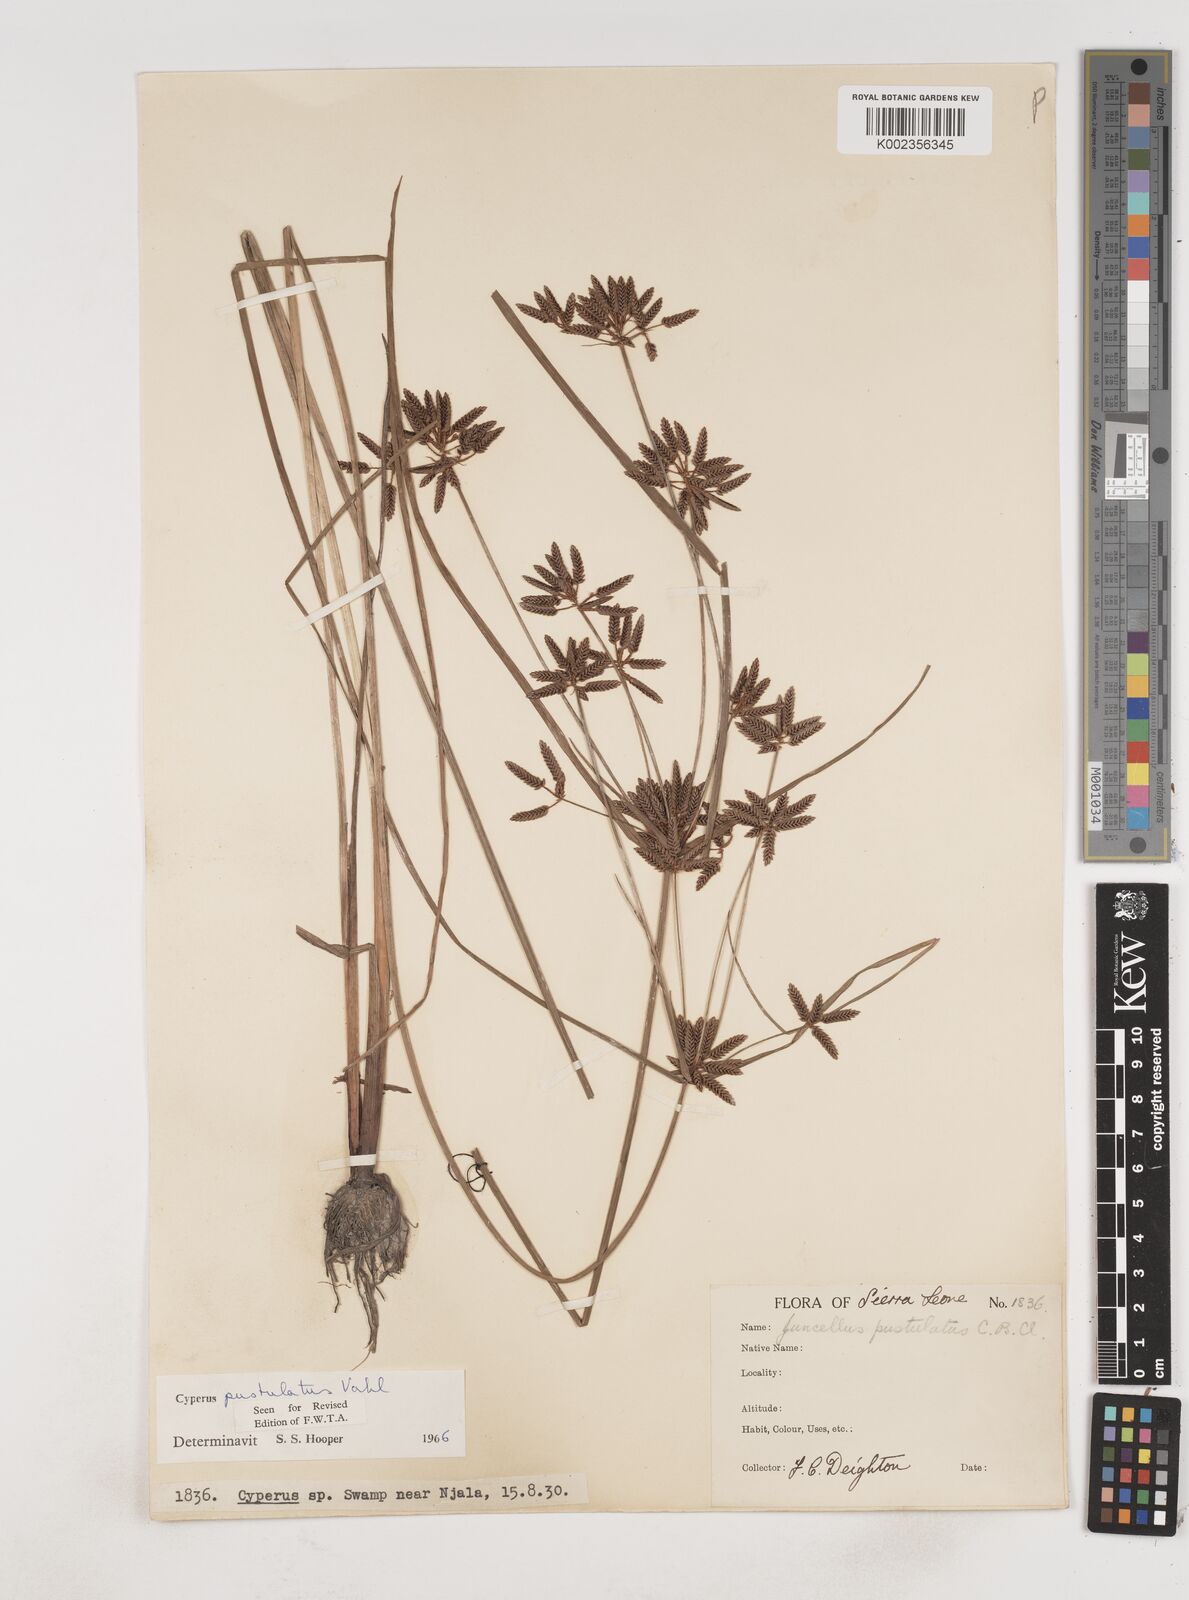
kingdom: Plantae
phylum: Tracheophyta
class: Liliopsida
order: Poales
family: Cyperaceae
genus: Cyperus
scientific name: Cyperus pustulatus
